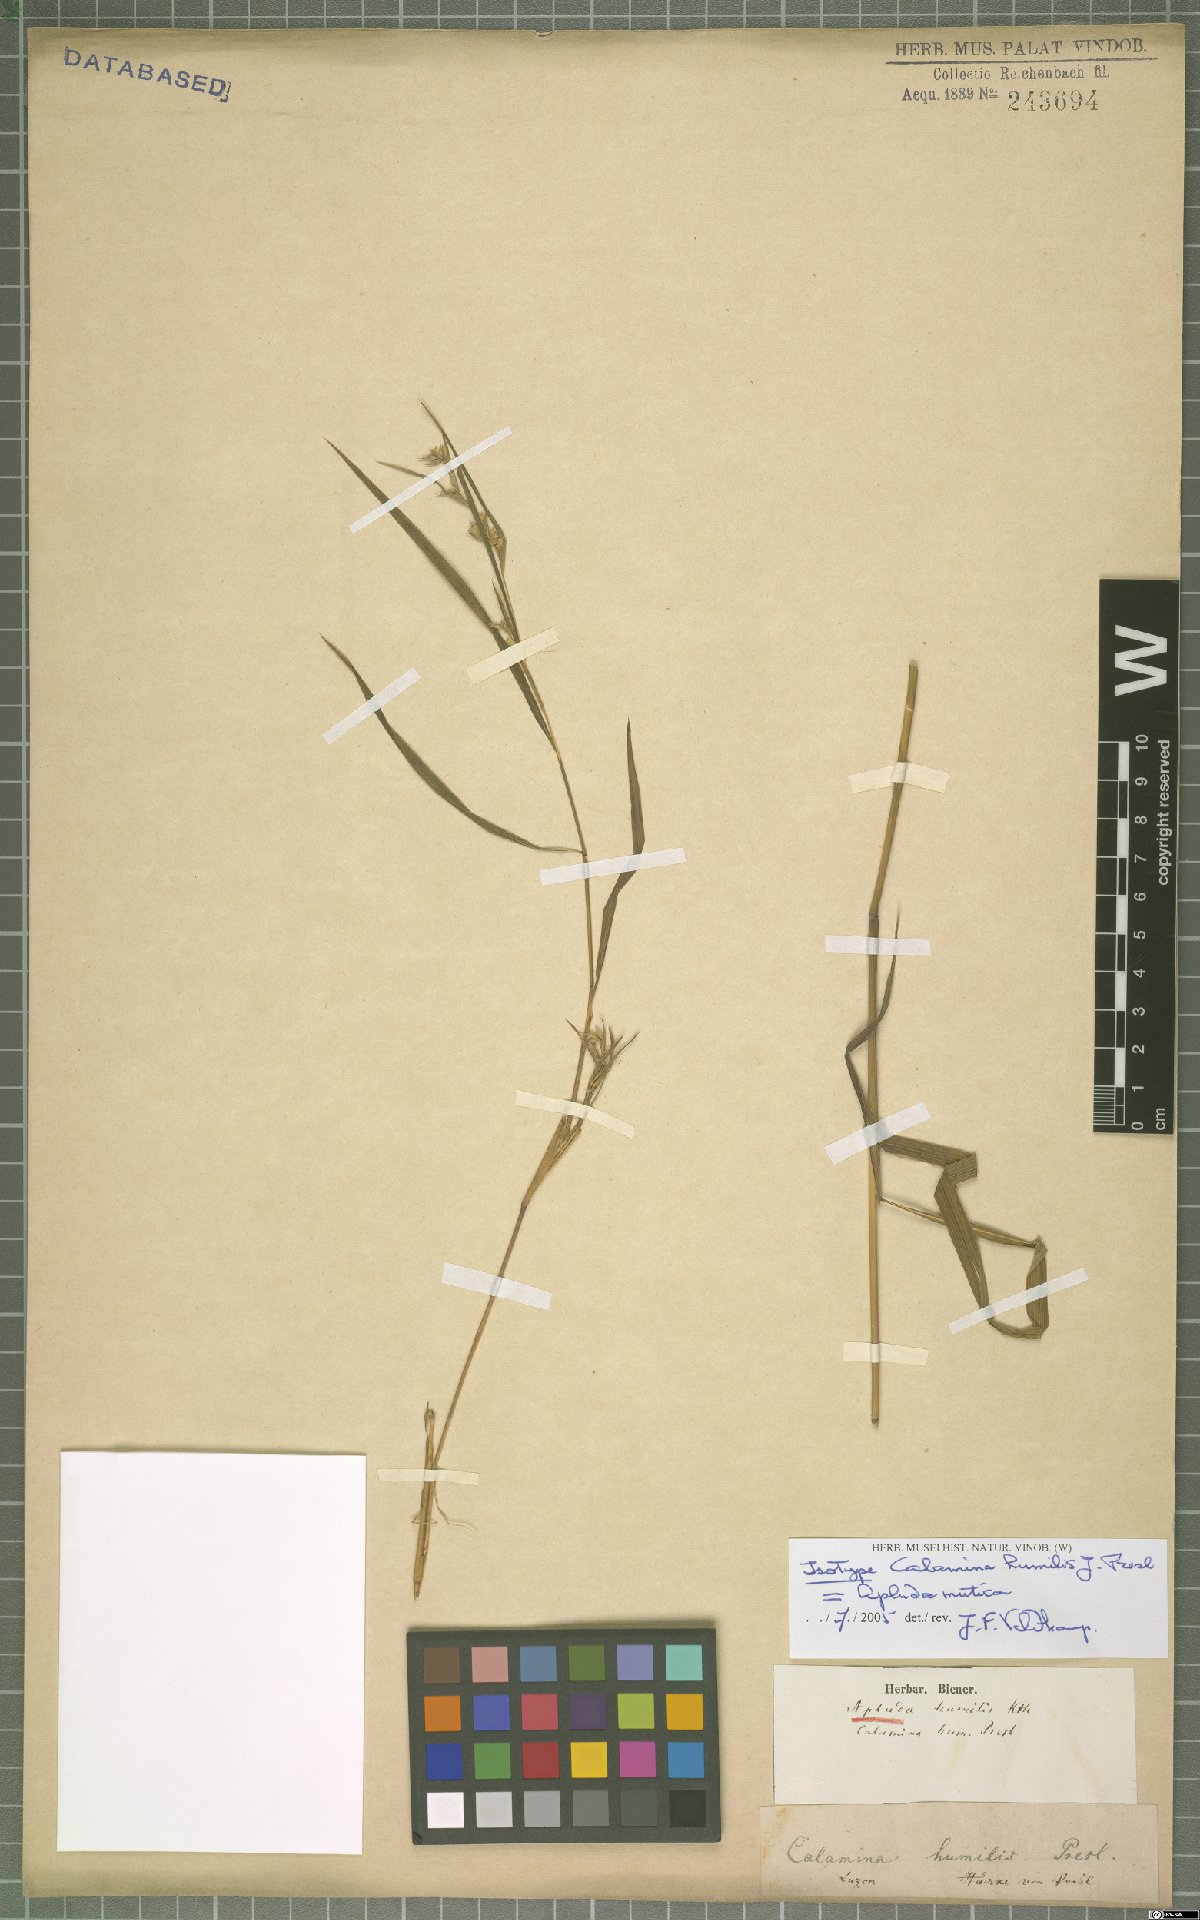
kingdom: Plantae
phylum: Tracheophyta
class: Liliopsida
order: Poales
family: Poaceae
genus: Apluda
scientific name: Apluda mutica
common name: Mauritian grass
